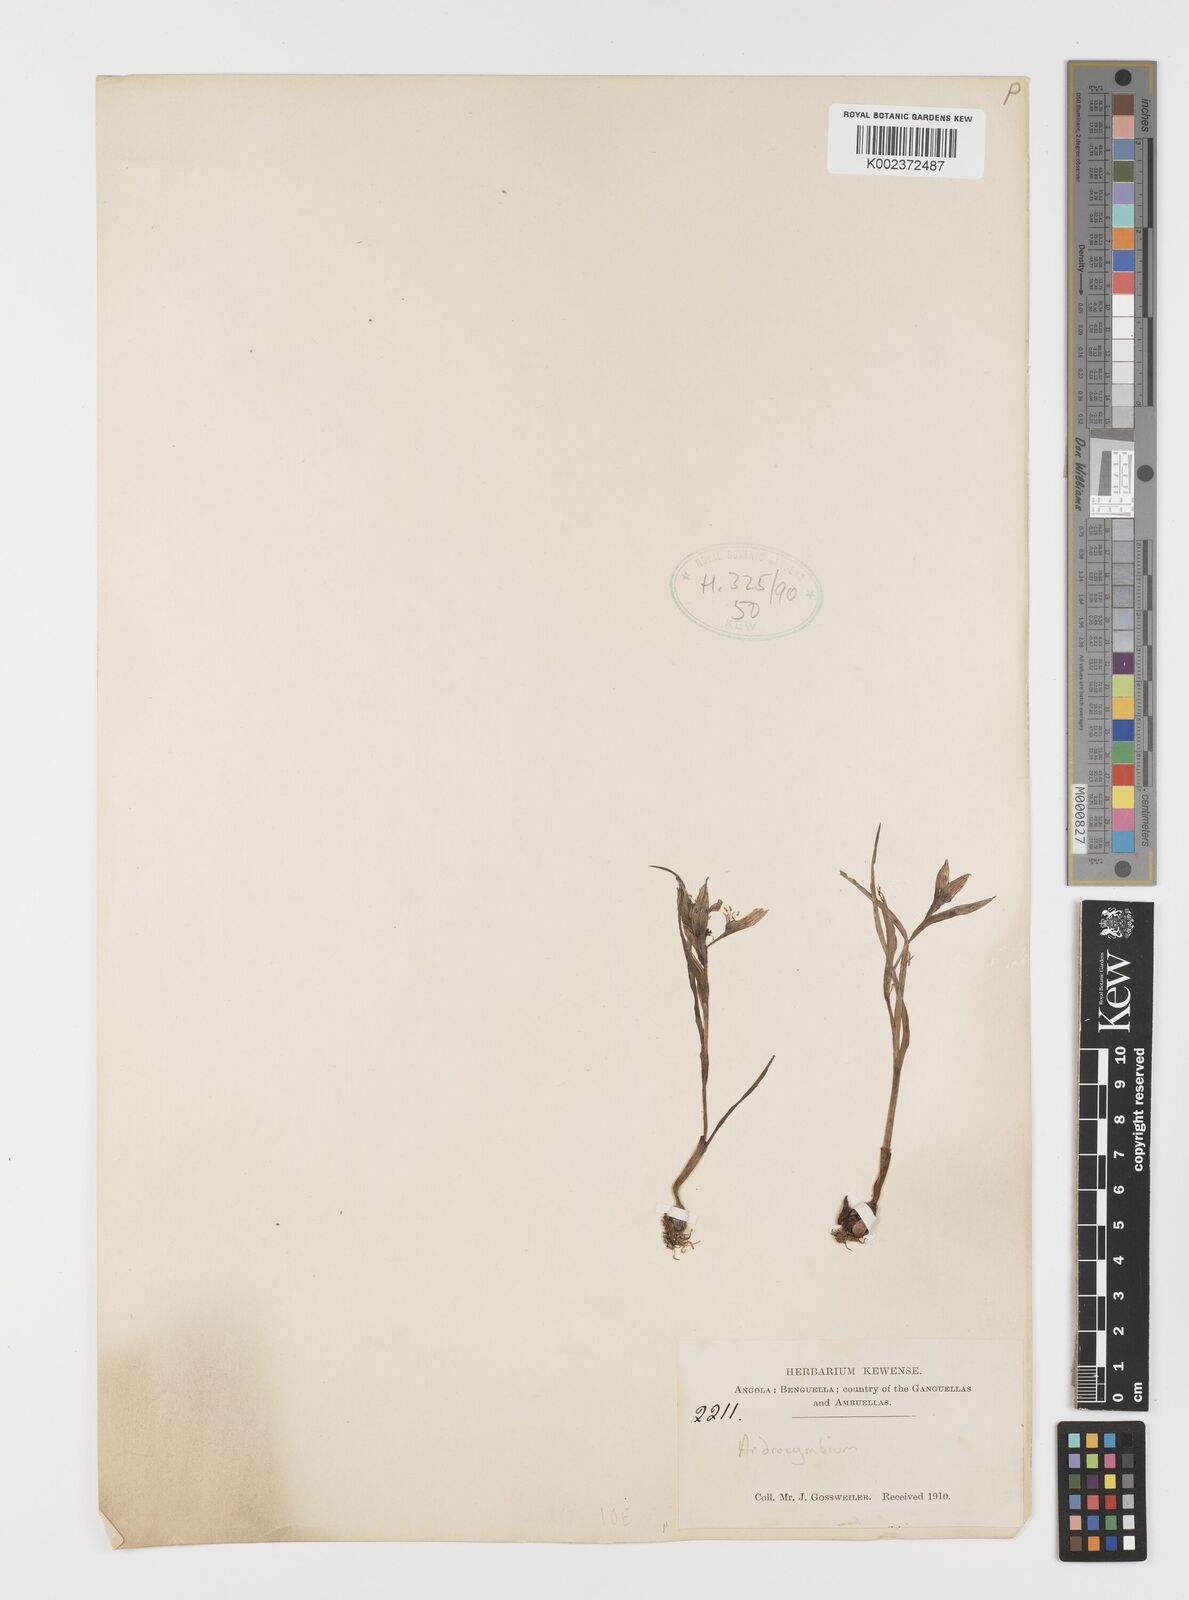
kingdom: Plantae
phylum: Tracheophyta
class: Liliopsida
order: Liliales
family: Colchicaceae
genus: Colchicum
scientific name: Colchicum
